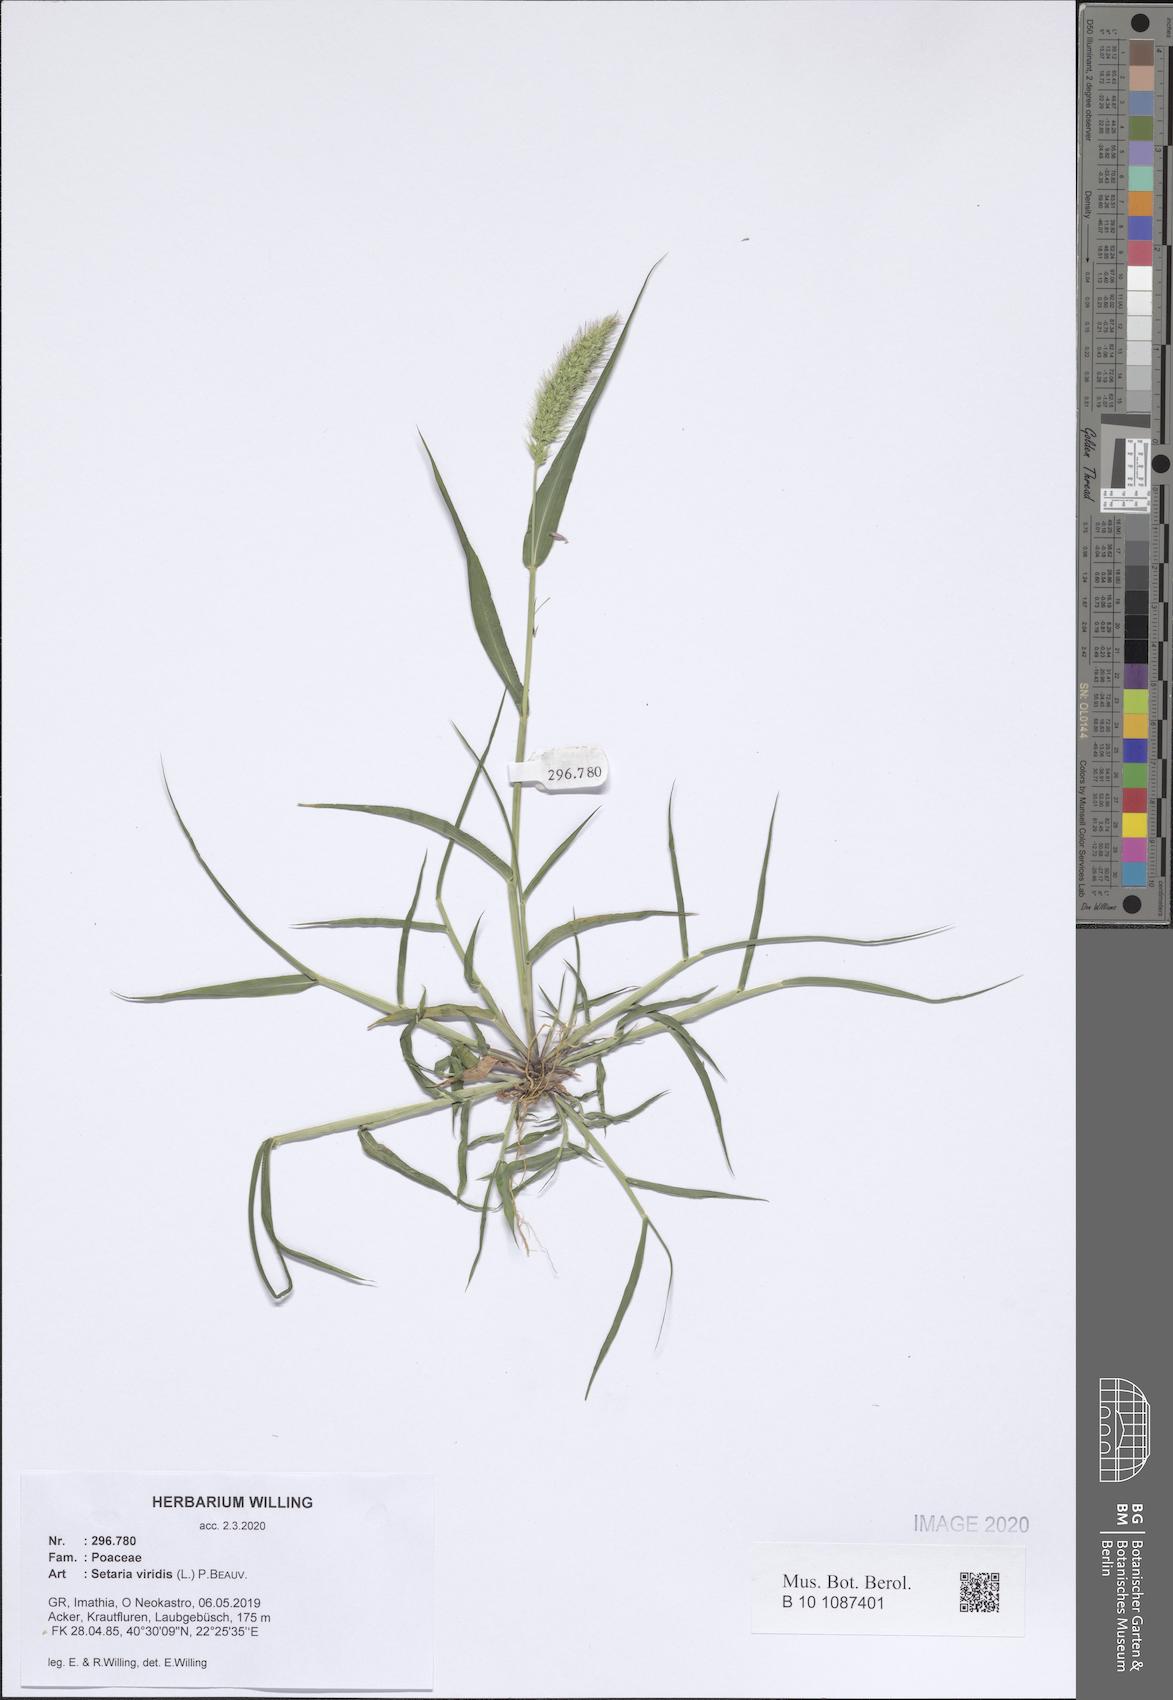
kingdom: Plantae
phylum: Tracheophyta
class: Liliopsida
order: Poales
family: Poaceae
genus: Setaria
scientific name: Setaria viridis
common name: Green bristlegrass
